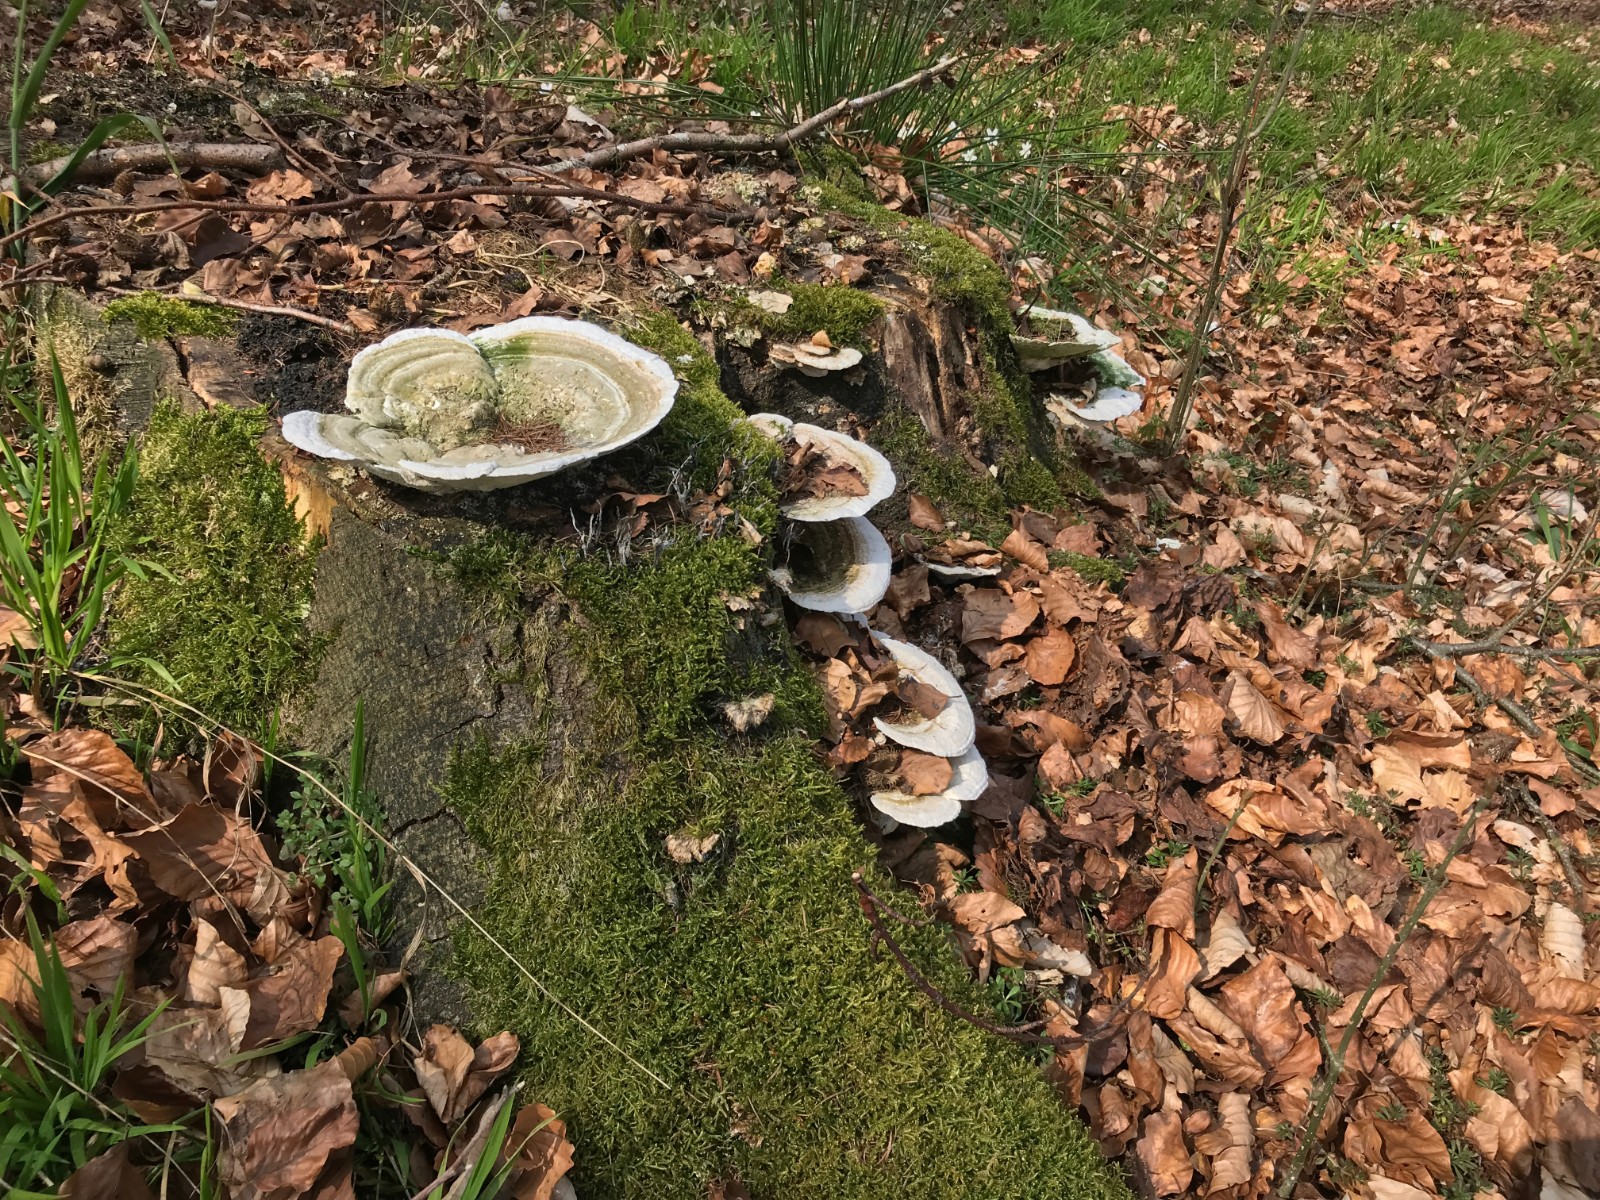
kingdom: Fungi
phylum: Basidiomycota
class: Agaricomycetes
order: Polyporales
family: Polyporaceae
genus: Trametes
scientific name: Trametes gibbosa
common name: puklet læderporesvamp
